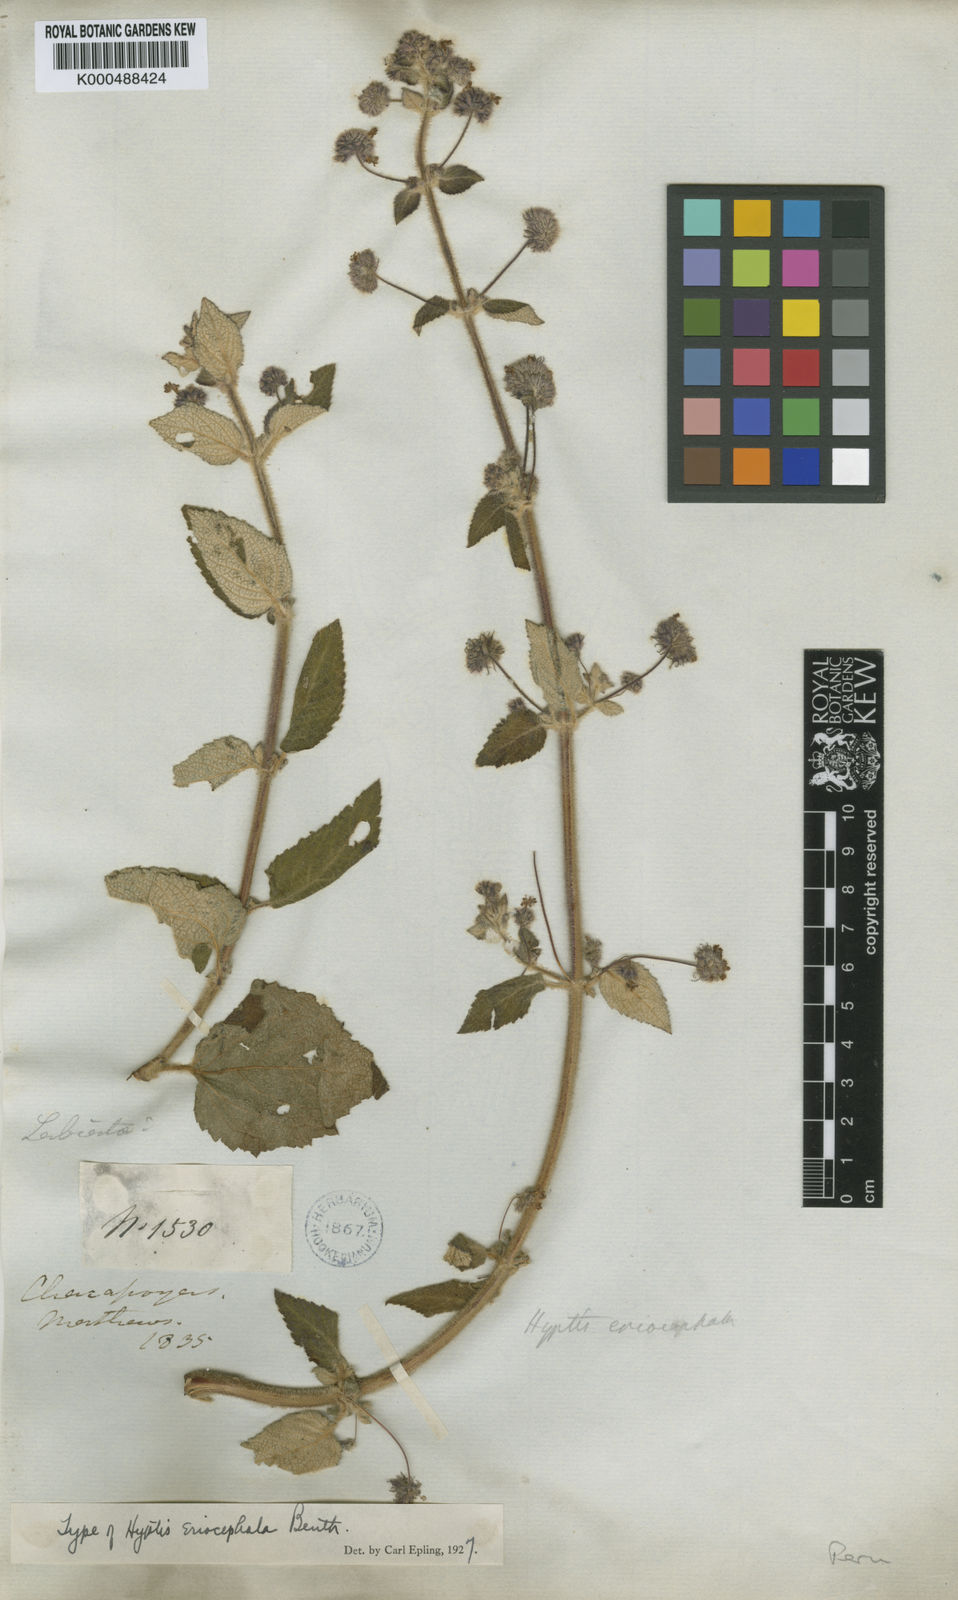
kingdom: Plantae
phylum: Tracheophyta
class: Magnoliopsida
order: Lamiales
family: Lamiaceae
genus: Mesosphaerum
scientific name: Mesosphaerum eriocephalum
